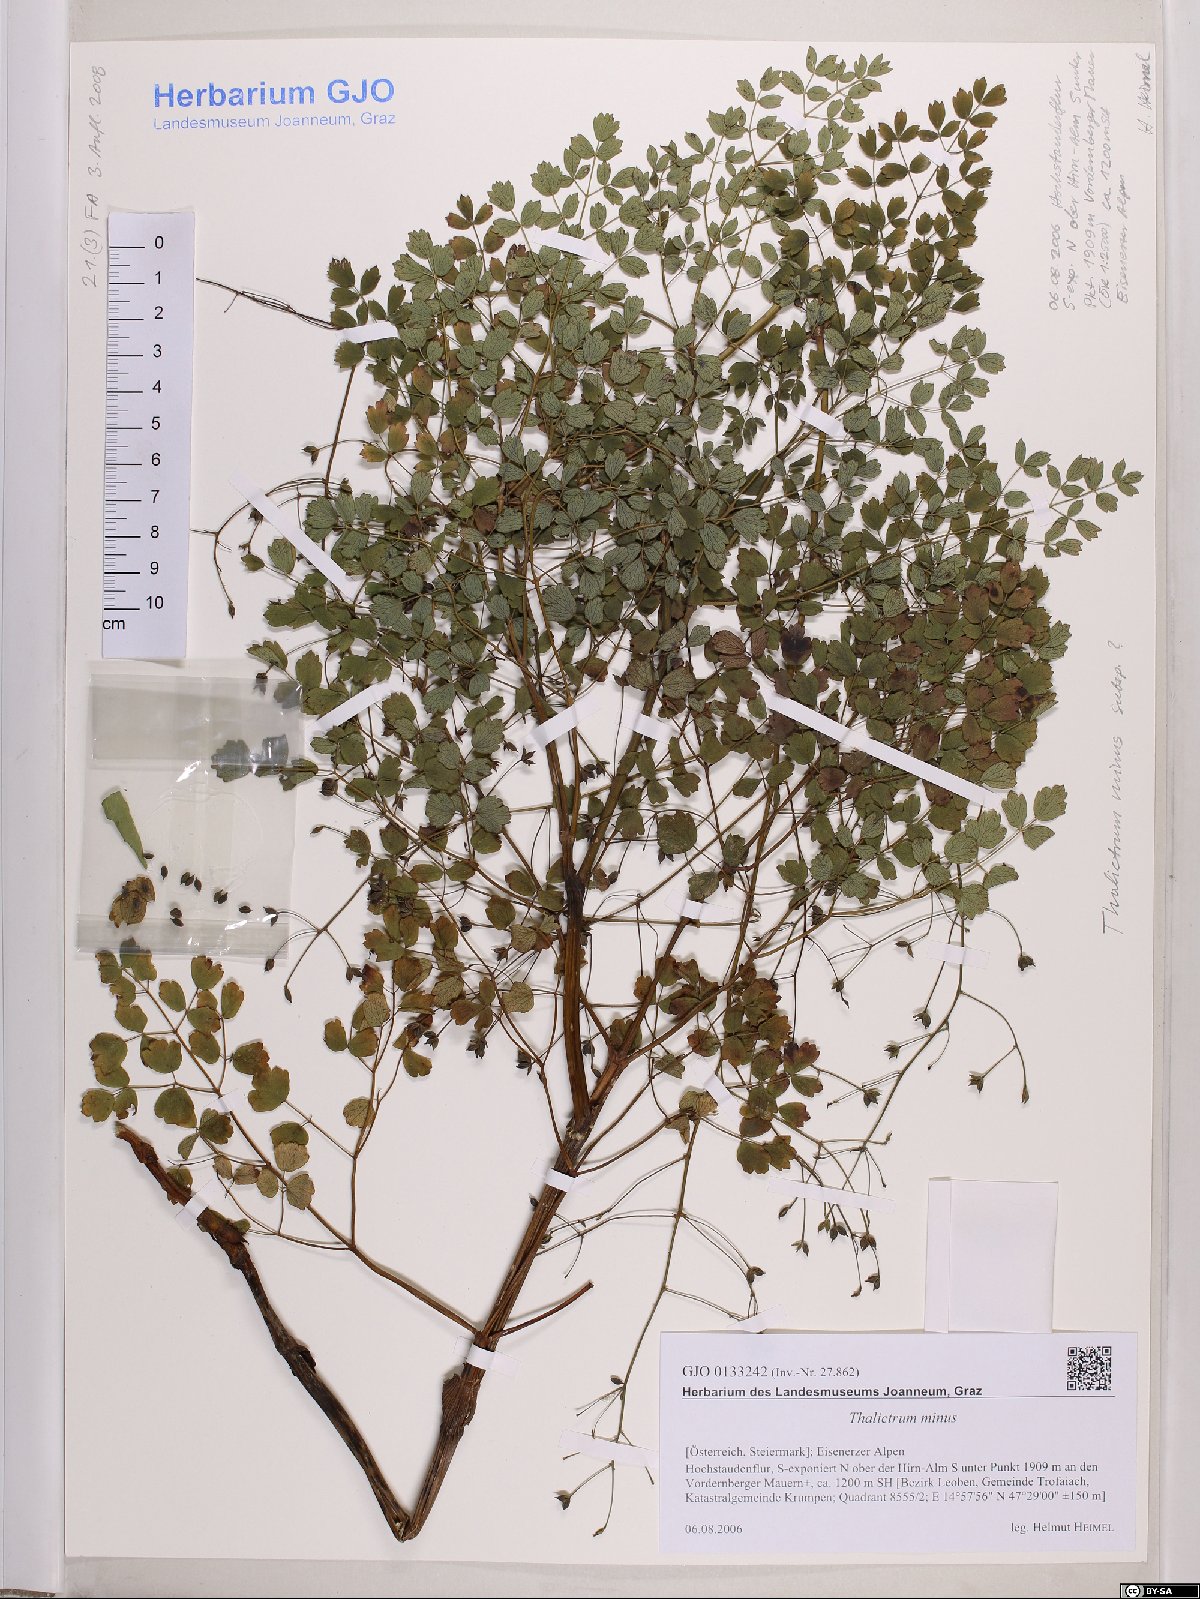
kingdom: Plantae
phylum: Tracheophyta
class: Magnoliopsida
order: Ranunculales
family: Ranunculaceae
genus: Thalictrum
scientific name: Thalictrum minus
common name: Lesser meadow-rue
